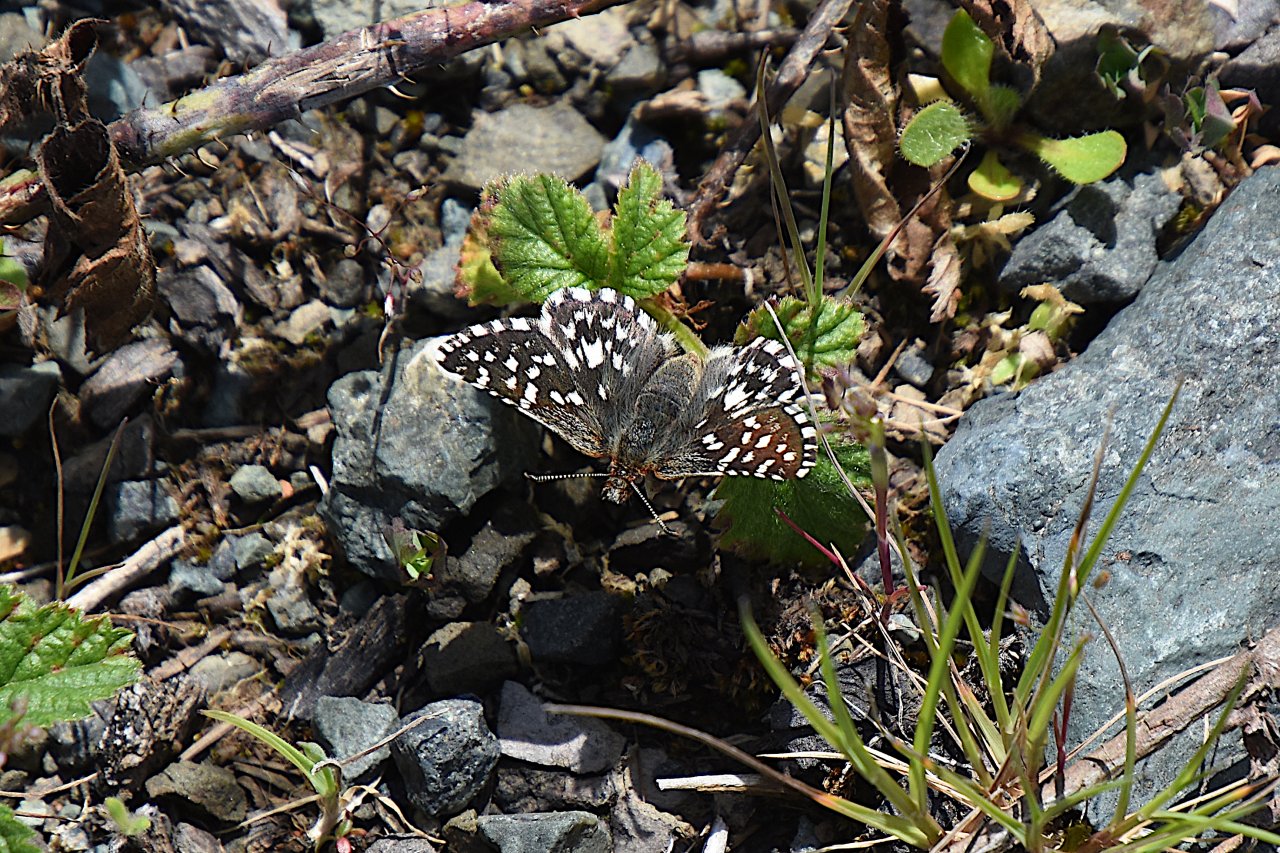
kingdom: Animalia
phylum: Arthropoda
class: Insecta
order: Lepidoptera
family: Hesperiidae
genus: Pyrgus
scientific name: Pyrgus ruralis
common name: Two-banded Checkered-Skipper
